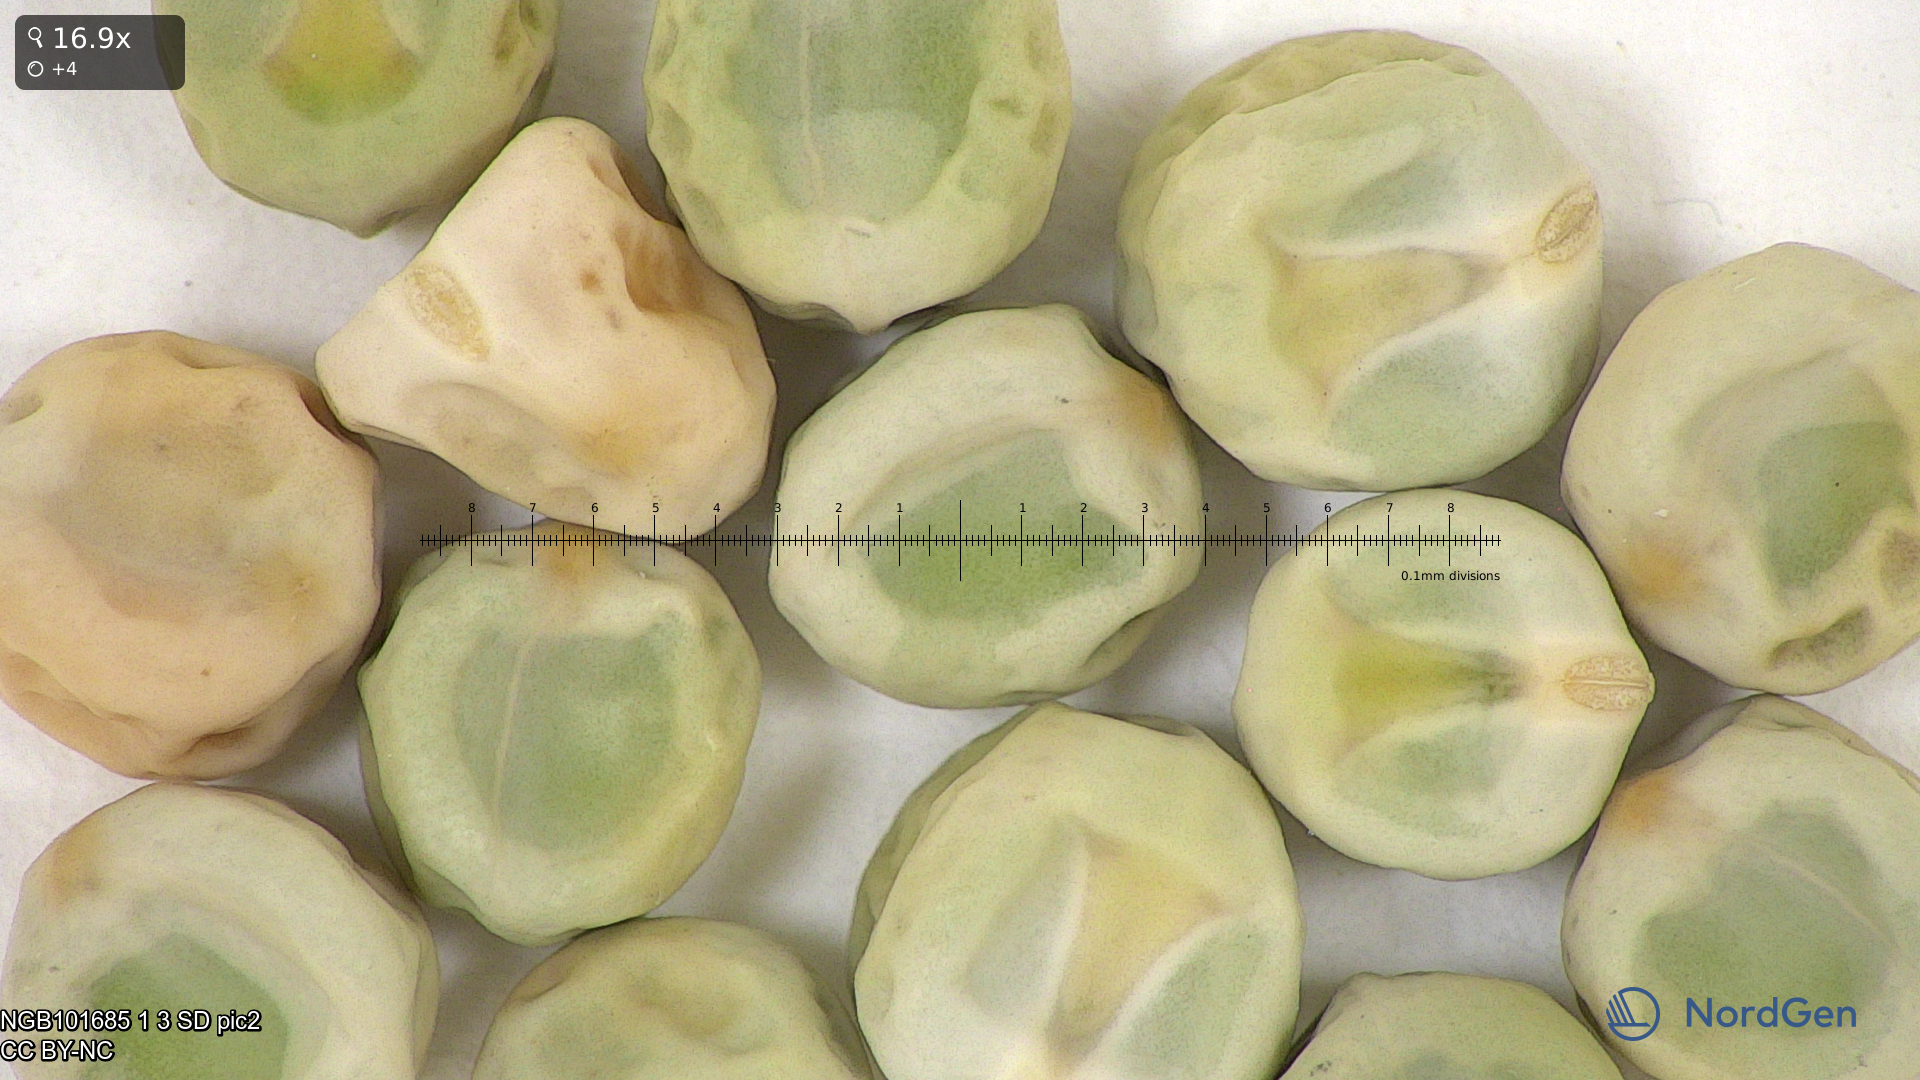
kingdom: Plantae
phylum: Tracheophyta
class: Magnoliopsida
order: Fabales
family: Fabaceae
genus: Lathyrus
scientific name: Lathyrus oleraceus
